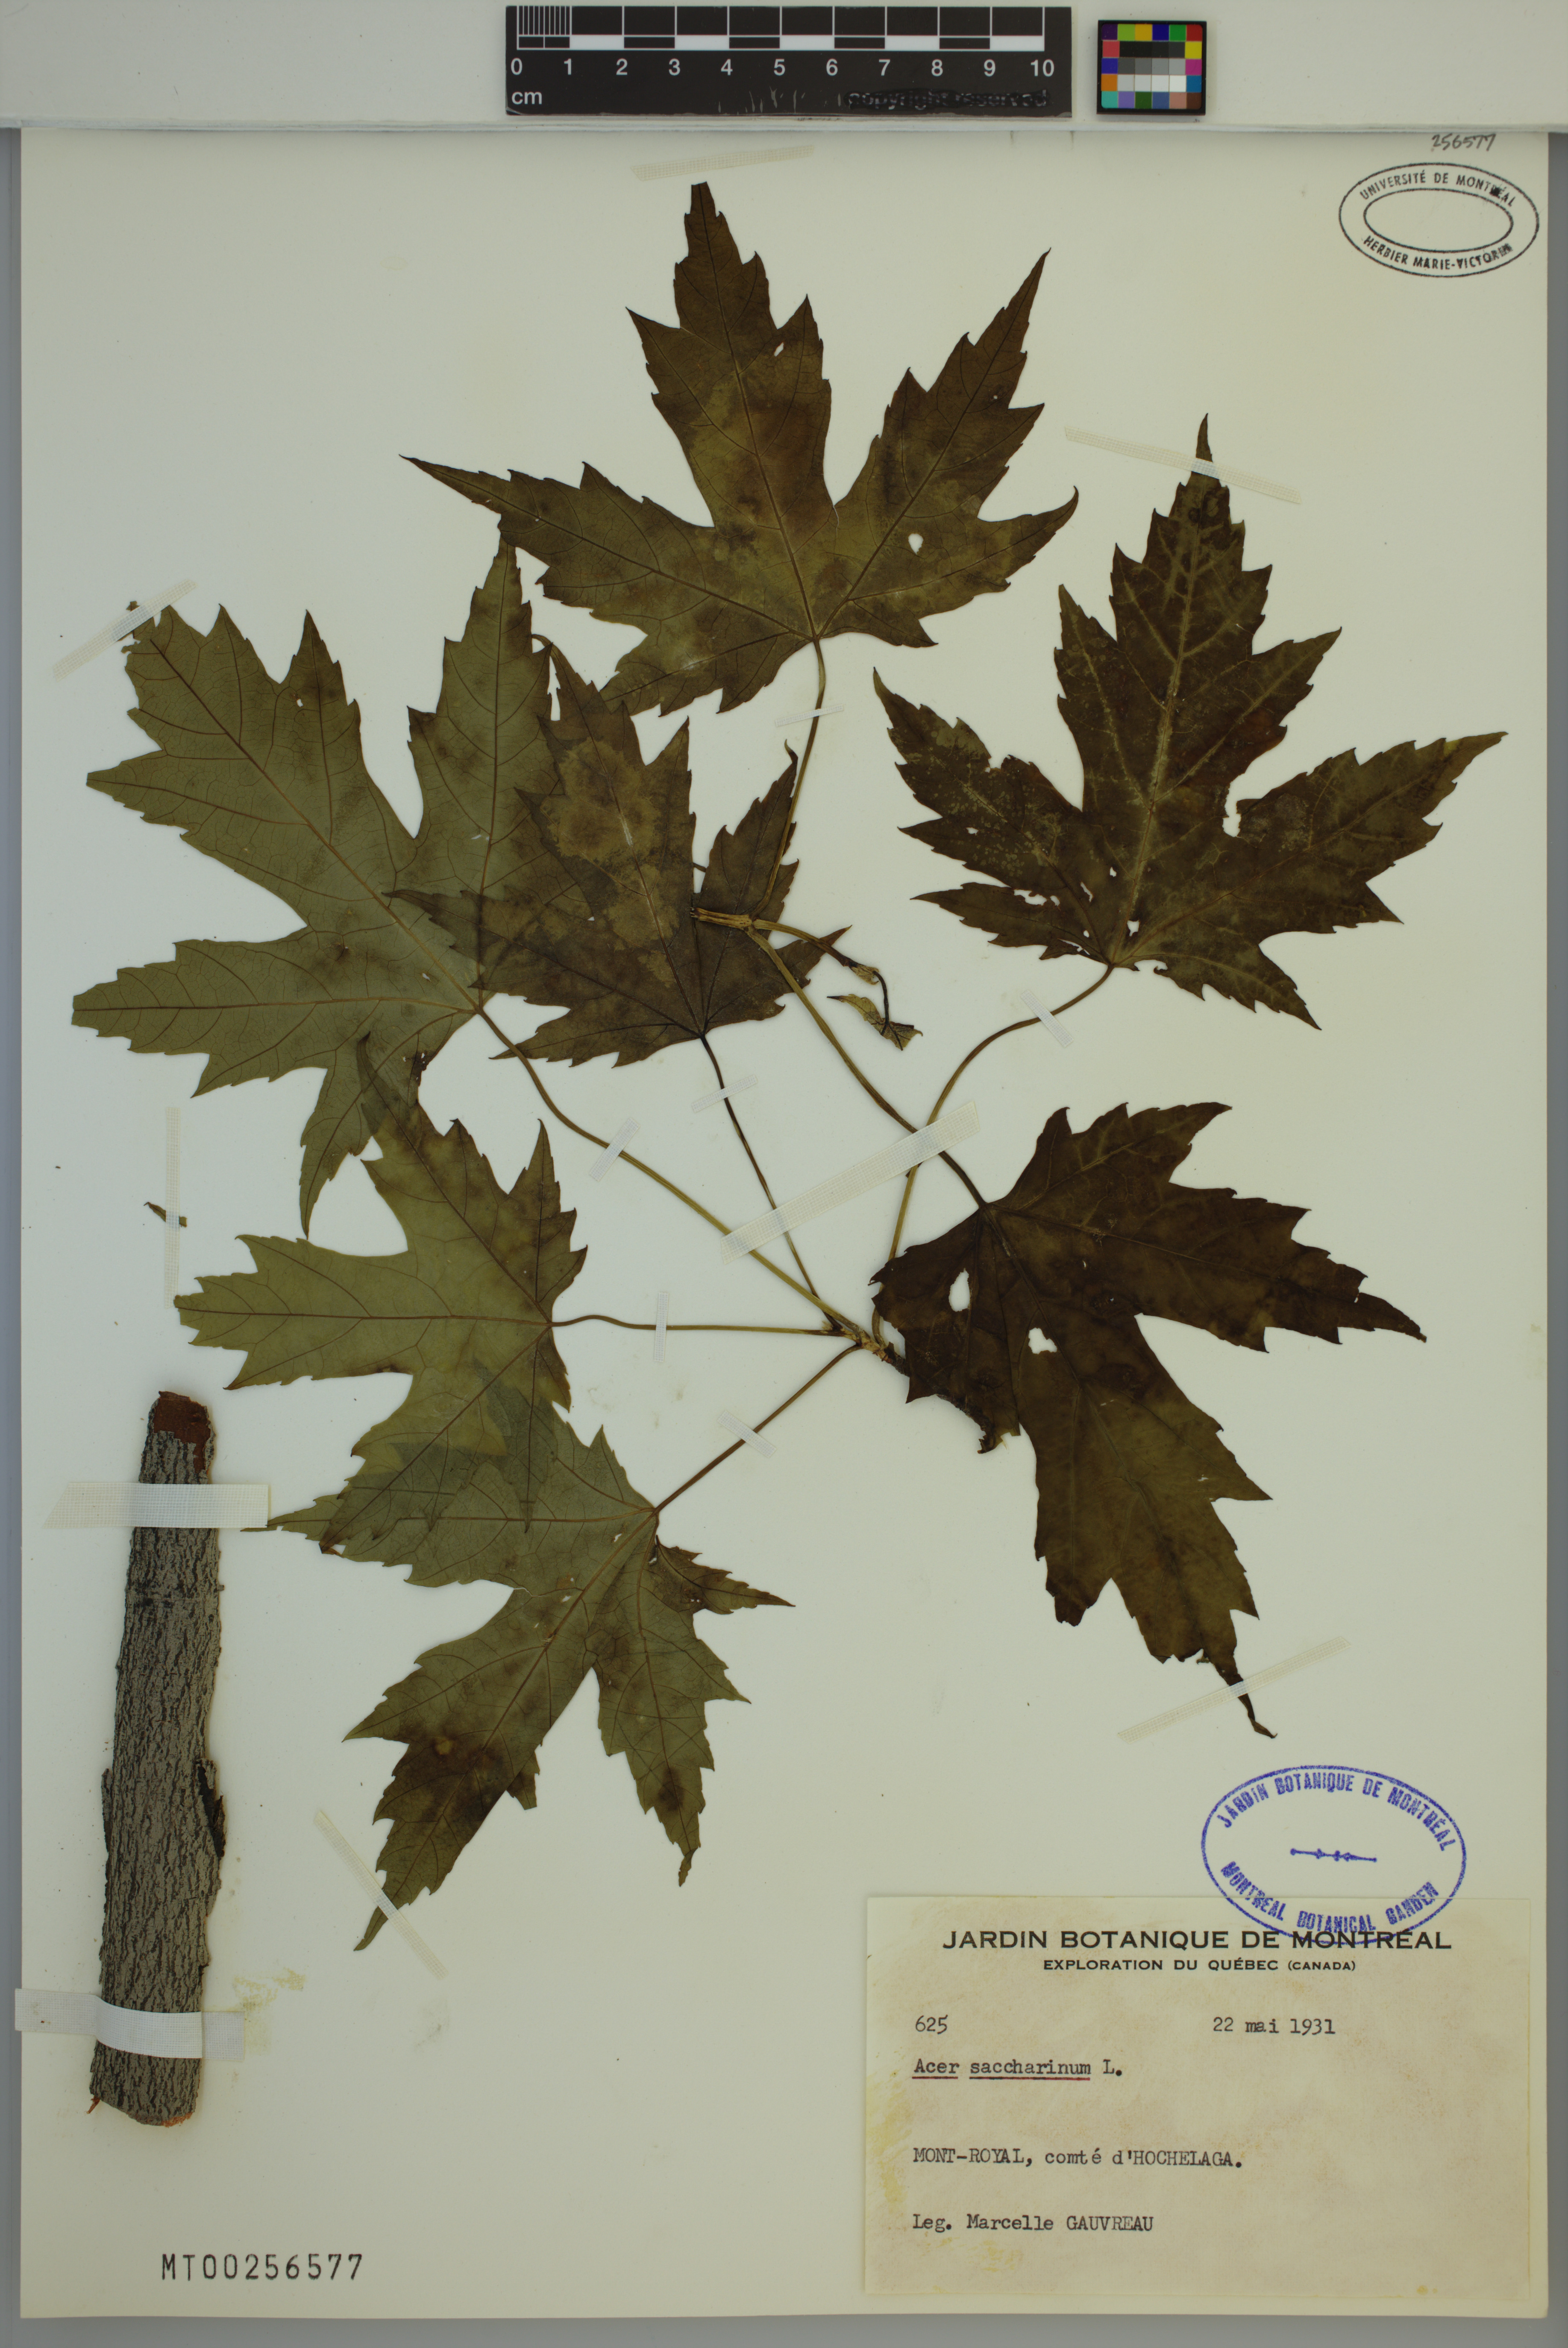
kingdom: Plantae
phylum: Tracheophyta
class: Magnoliopsida
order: Sapindales
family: Sapindaceae
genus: Acer
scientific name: Acer saccharinum
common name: Silver maple
